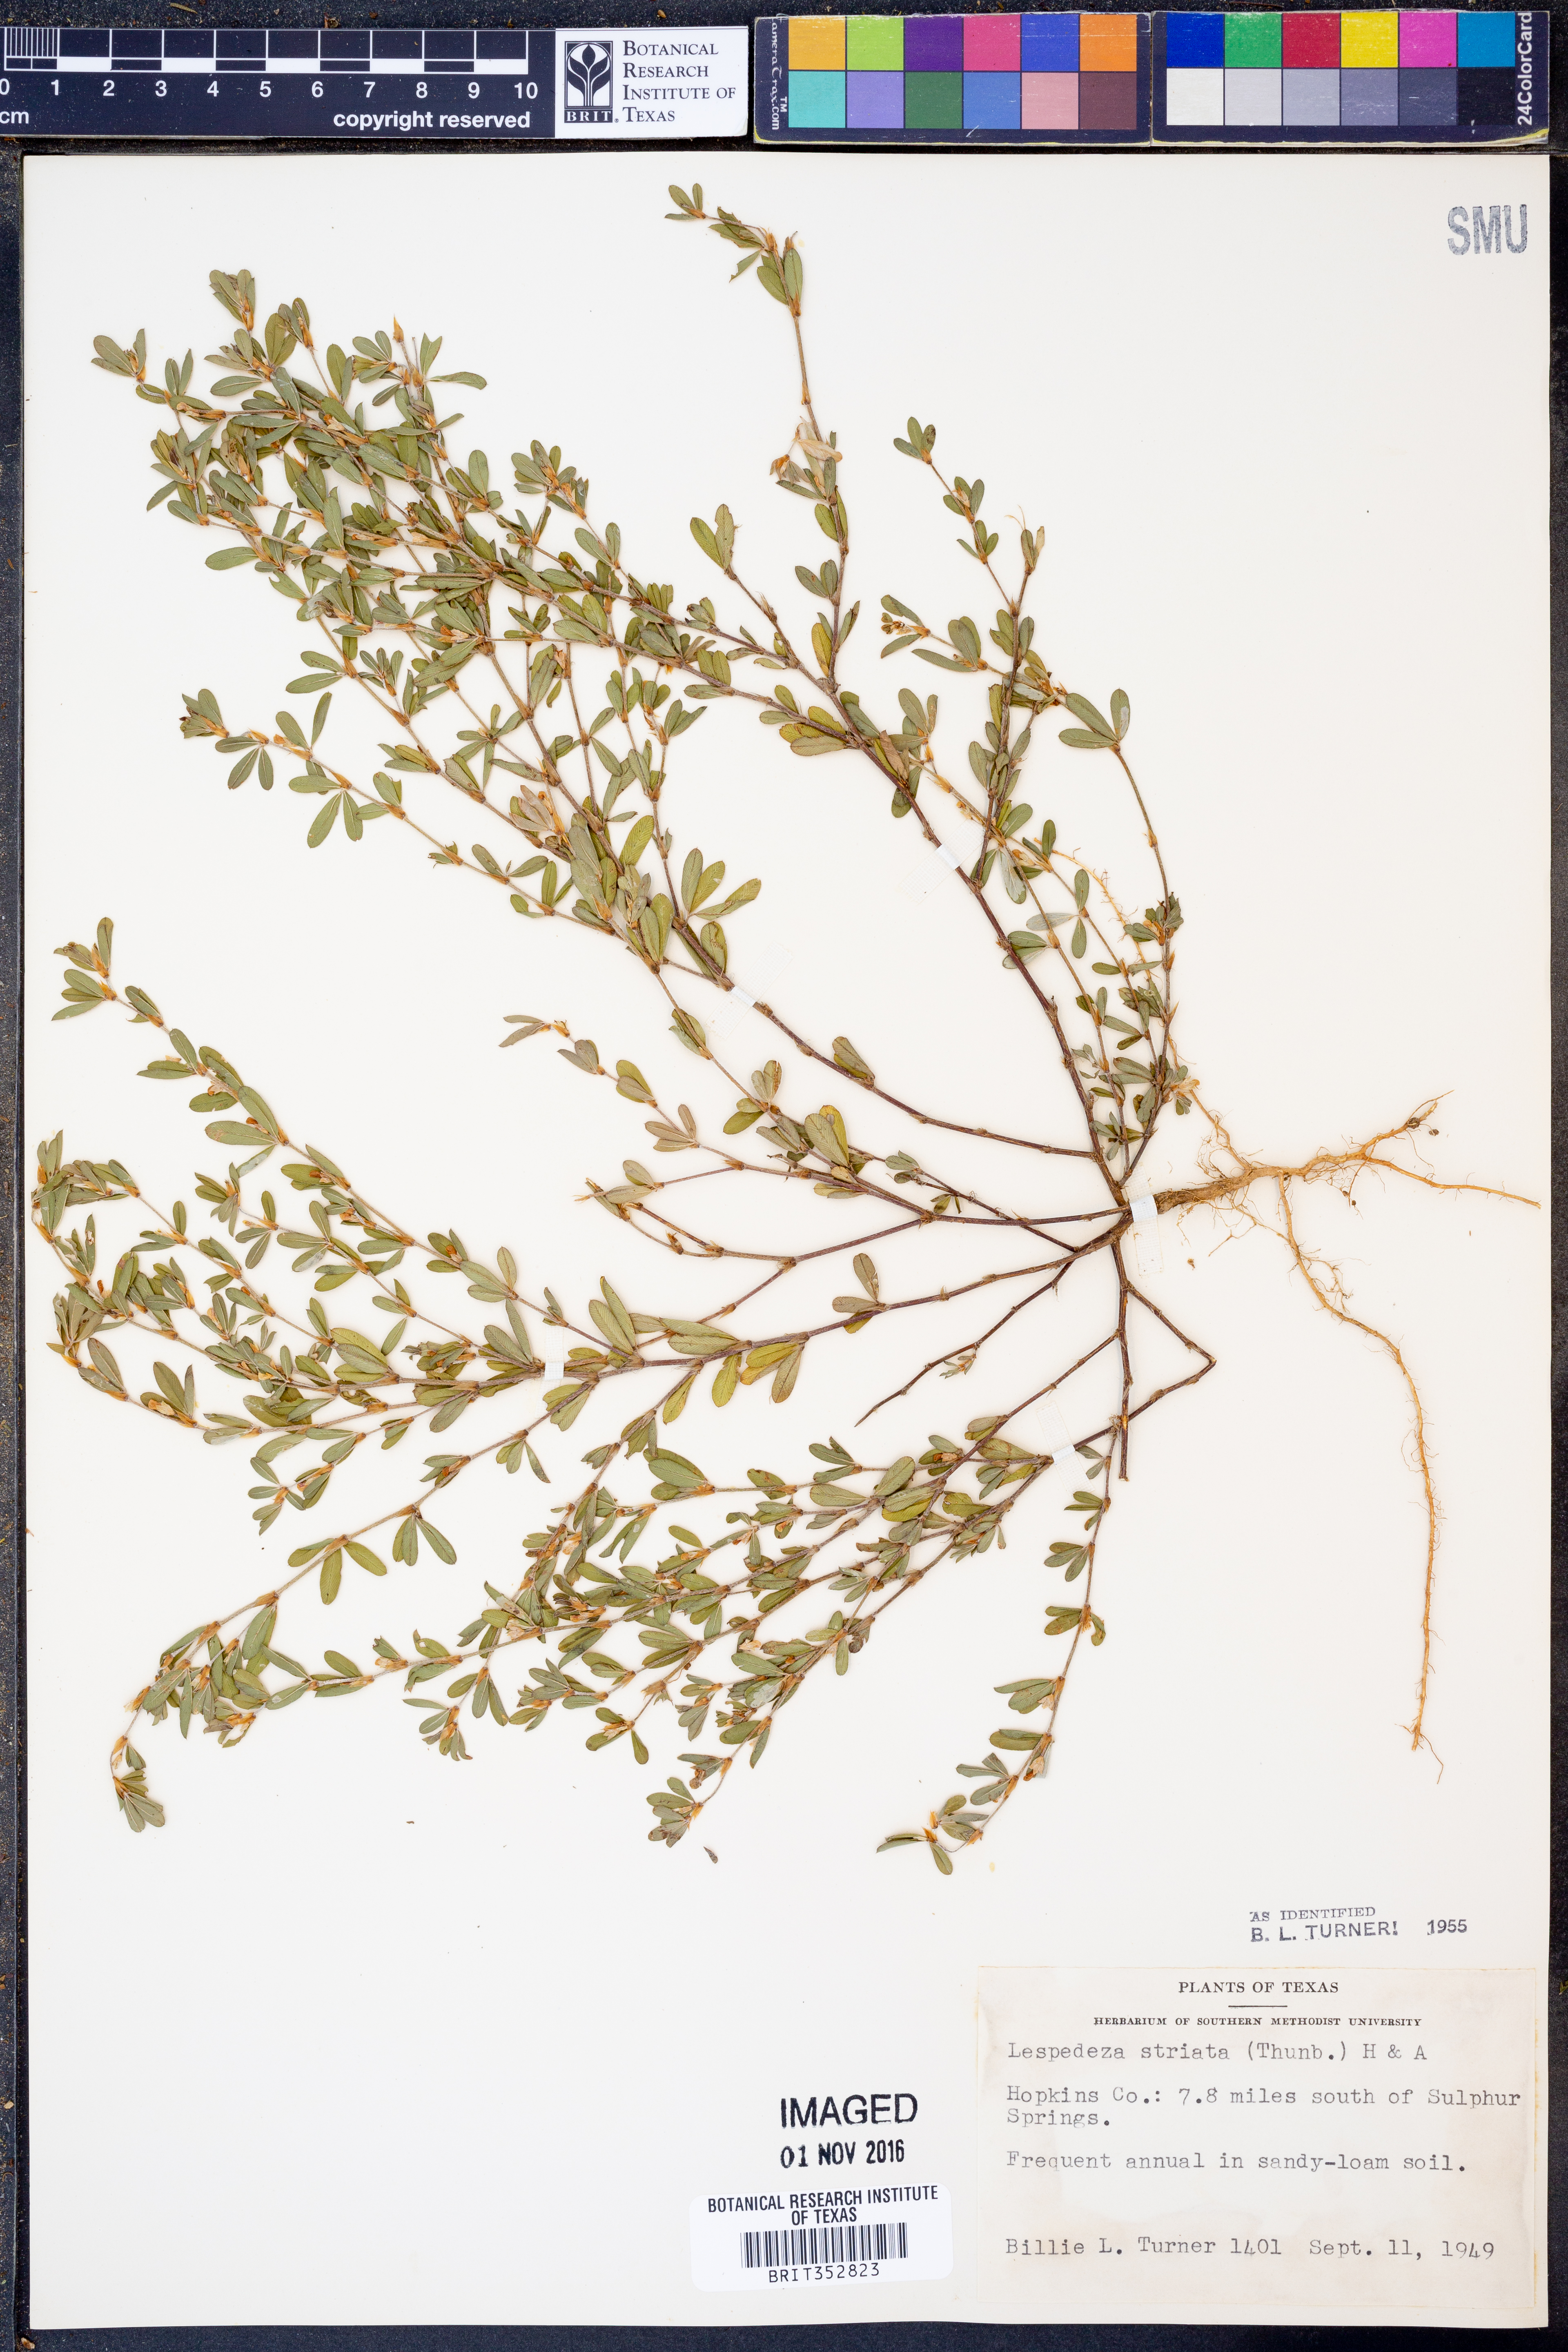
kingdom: Plantae
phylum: Tracheophyta
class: Magnoliopsida
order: Fabales
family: Fabaceae
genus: Kummerowia
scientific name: Kummerowia striata
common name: Japanese clover
